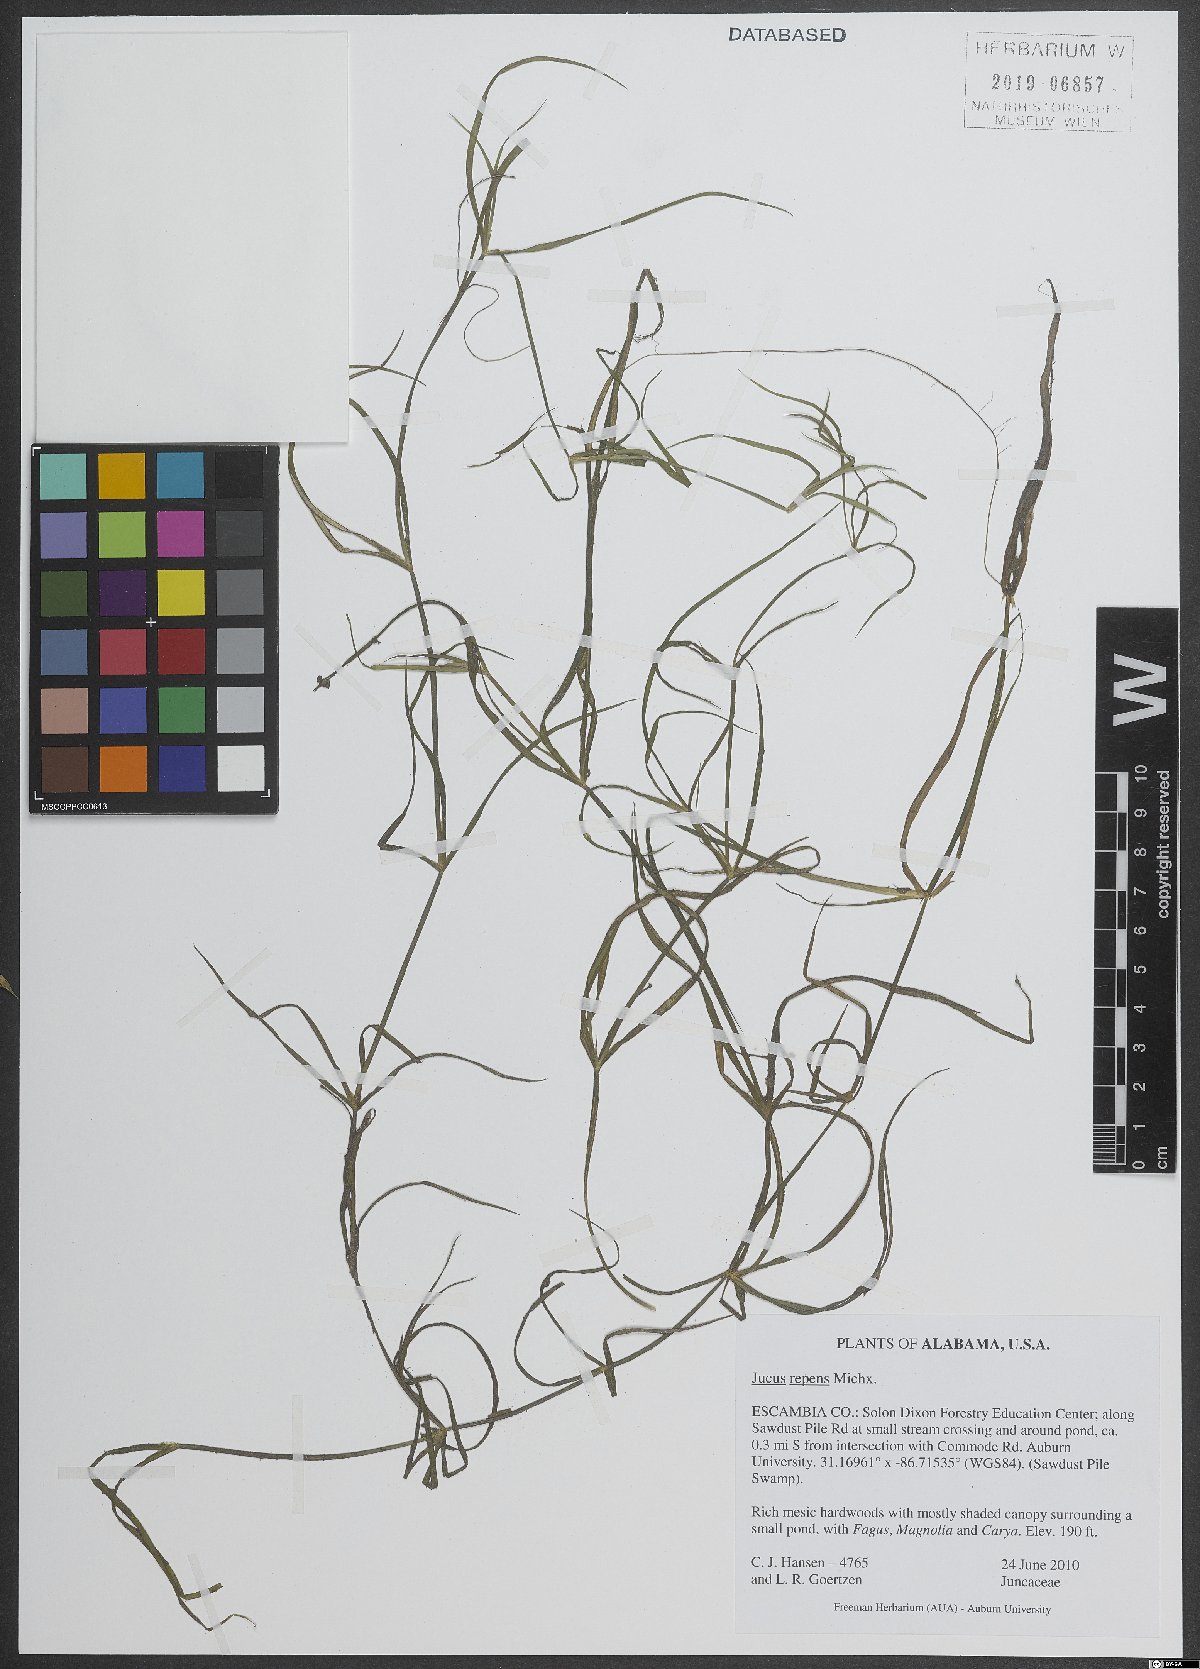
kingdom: Plantae
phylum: Tracheophyta
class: Liliopsida
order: Poales
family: Juncaceae
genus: Juncus
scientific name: Juncus repens
